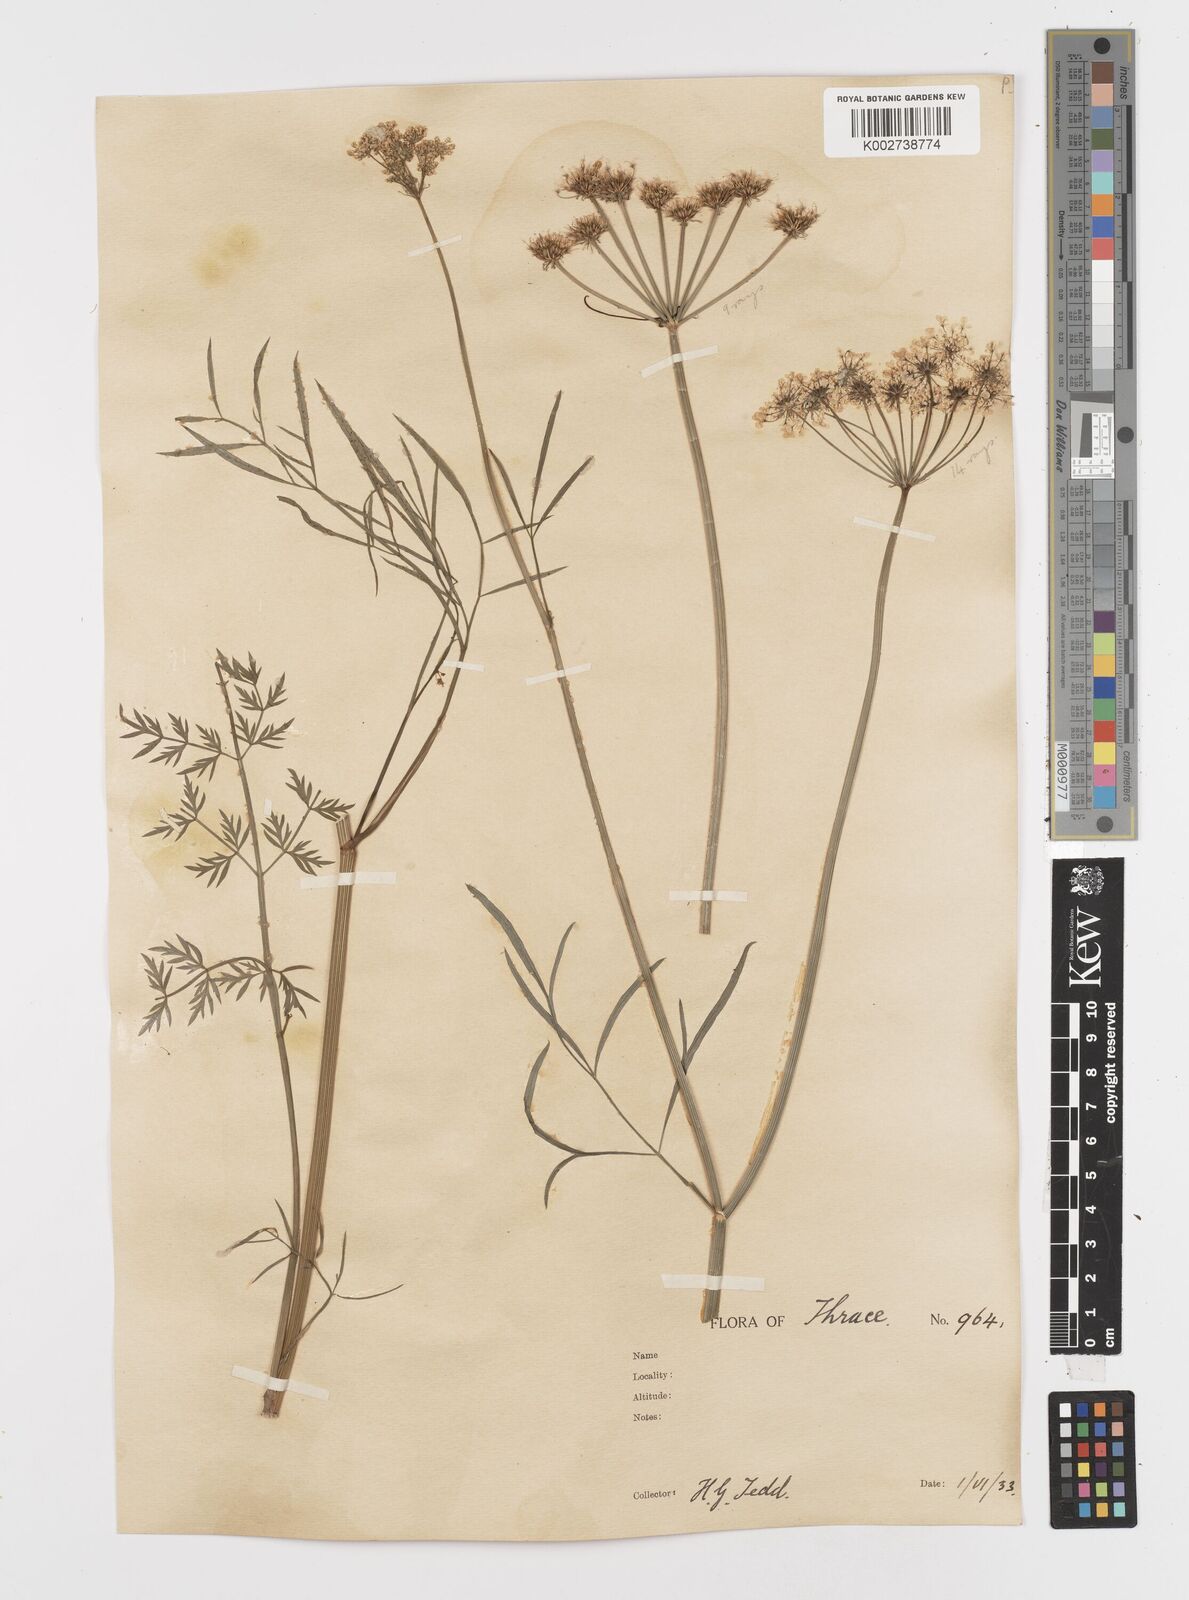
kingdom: Plantae
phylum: Tracheophyta
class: Magnoliopsida
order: Apiales
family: Apiaceae
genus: Oenanthe
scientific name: Oenanthe pimpinelloides
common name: Corky-fruited water-dropwort
